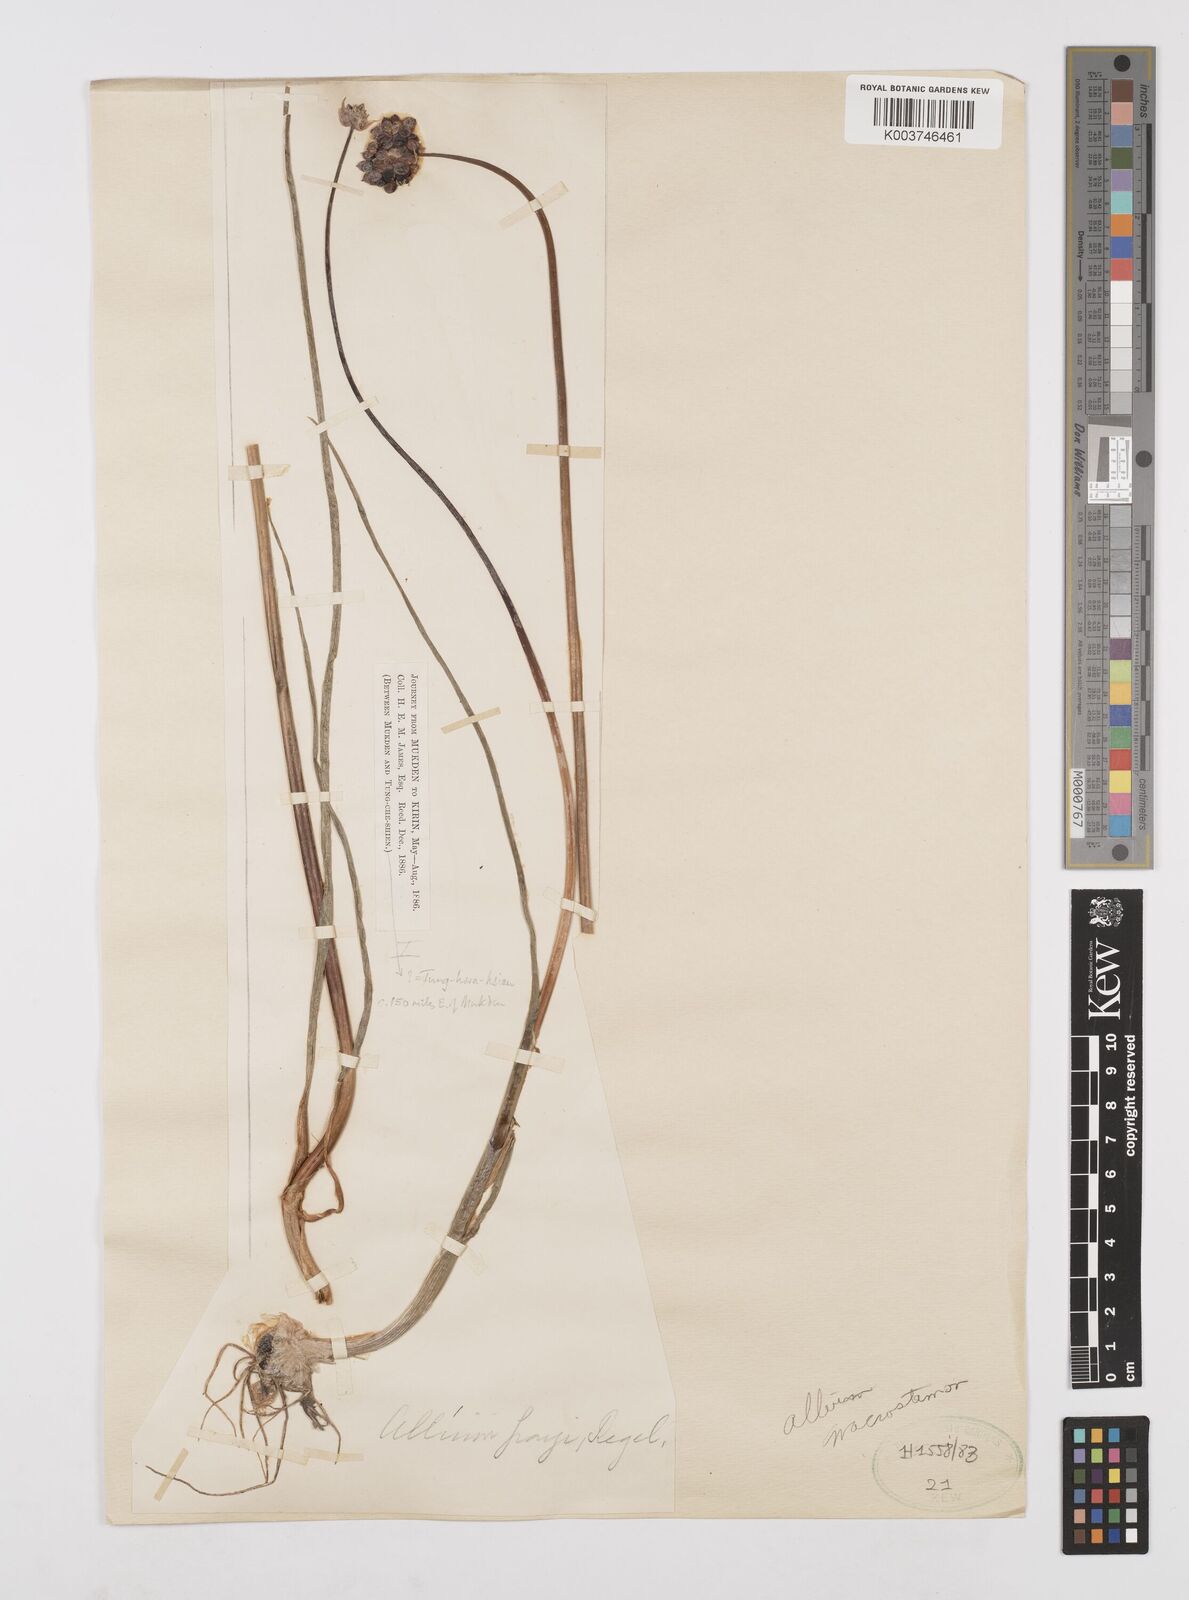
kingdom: Plantae
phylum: Tracheophyta
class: Liliopsida
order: Asparagales
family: Amaryllidaceae
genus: Allium
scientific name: Allium macrostemon
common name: Chinese garlic
